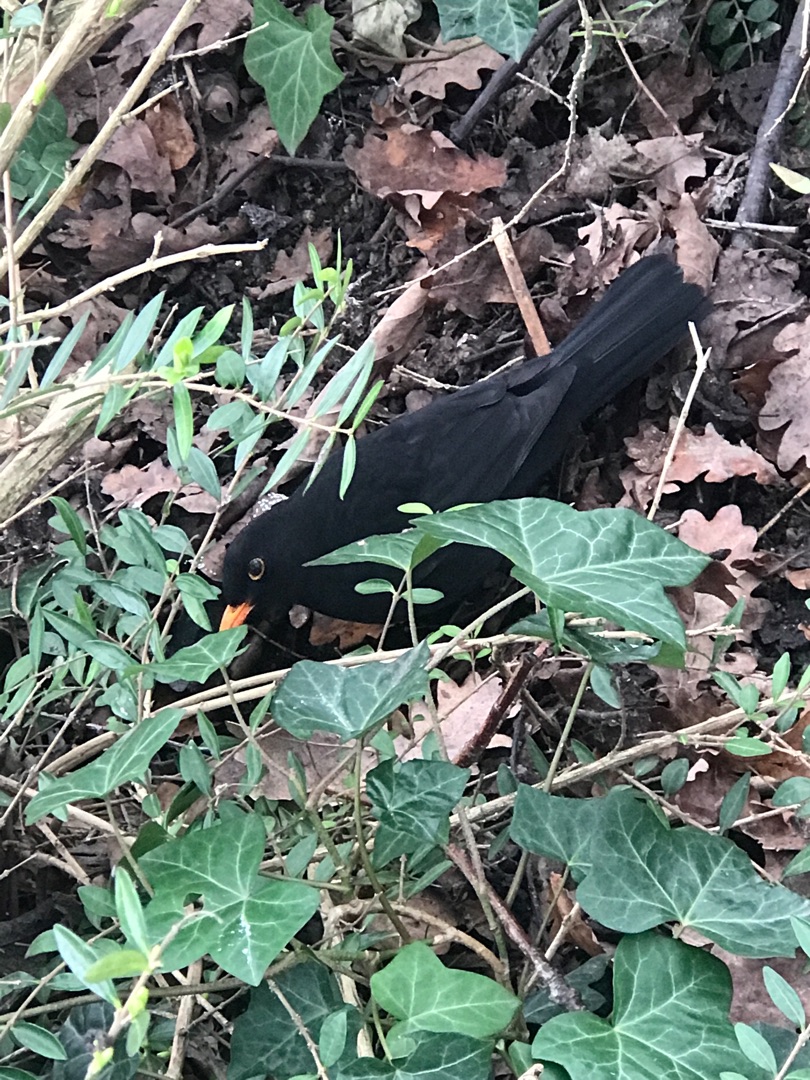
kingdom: Animalia
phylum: Chordata
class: Aves
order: Passeriformes
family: Turdidae
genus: Turdus
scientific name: Turdus merula
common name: Solsort
